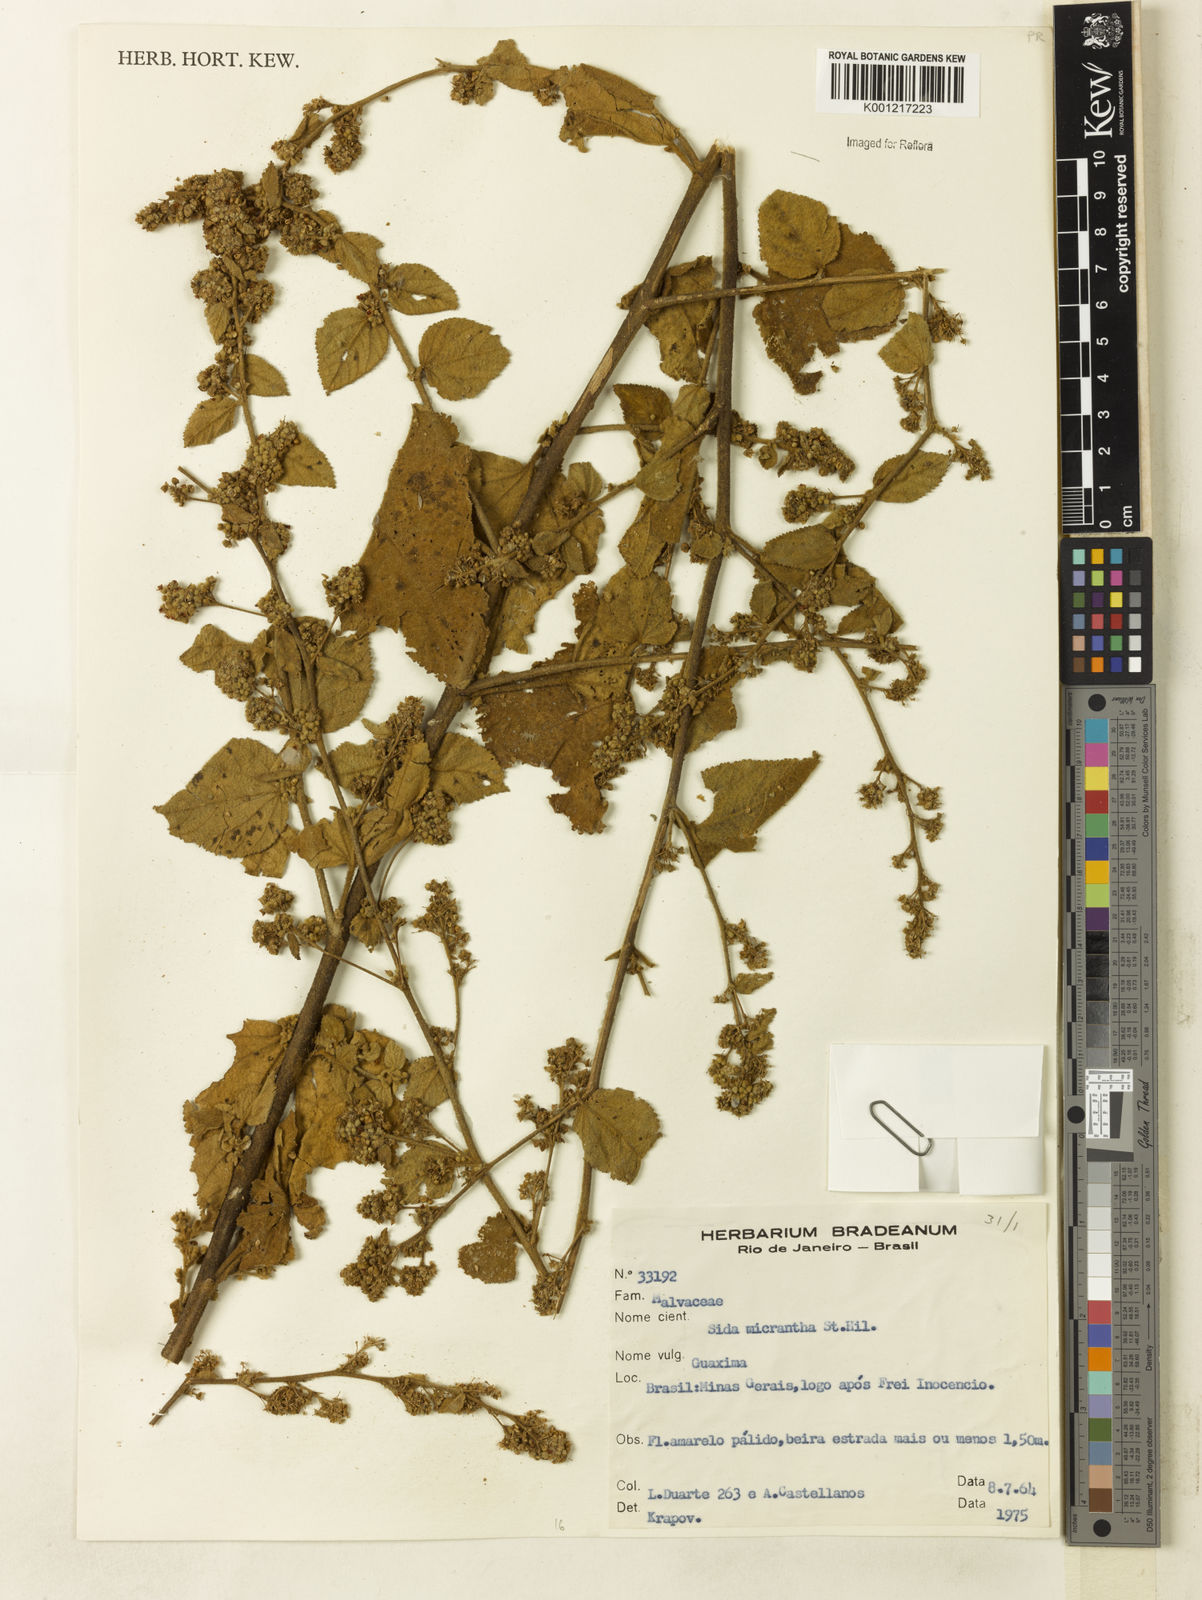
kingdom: Plantae
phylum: Tracheophyta
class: Magnoliopsida
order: Malvales
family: Malvaceae
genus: Sidastrum
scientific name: Sidastrum micranthum
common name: Dainty sandmallow
